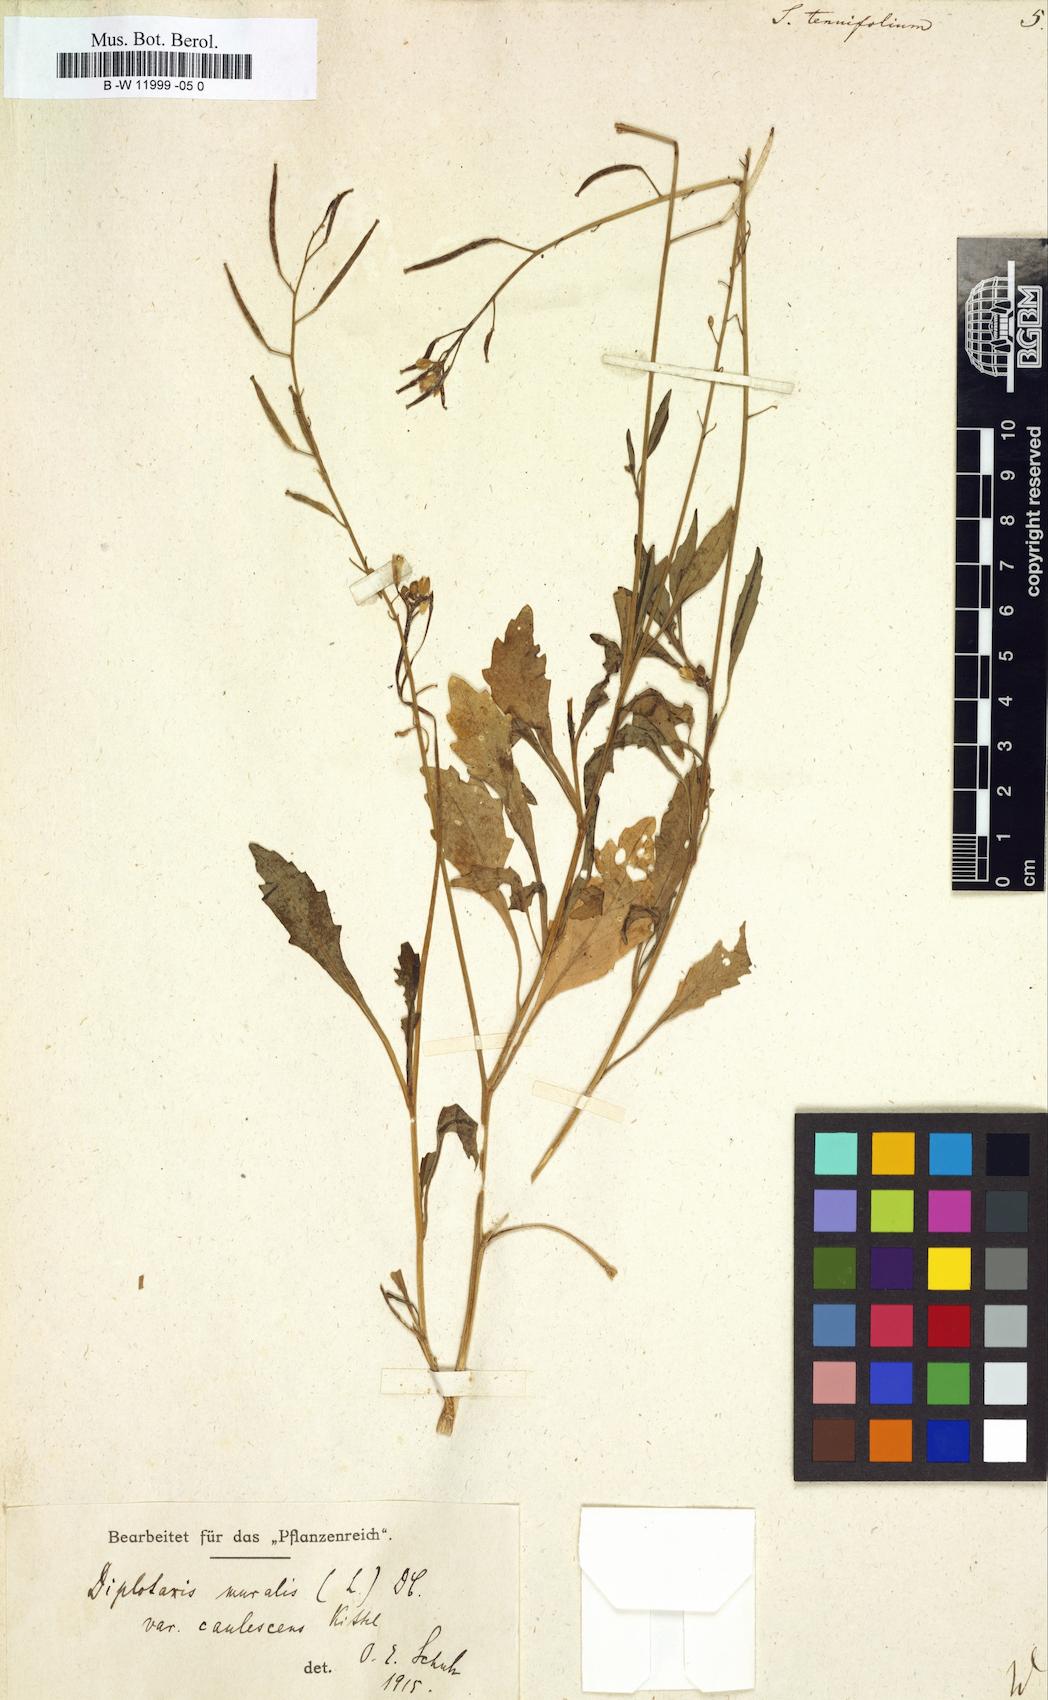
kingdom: Plantae
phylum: Tracheophyta
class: Magnoliopsida
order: Brassicales
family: Brassicaceae
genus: Sisymbrium
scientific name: Sisymbrium tenuifolium
